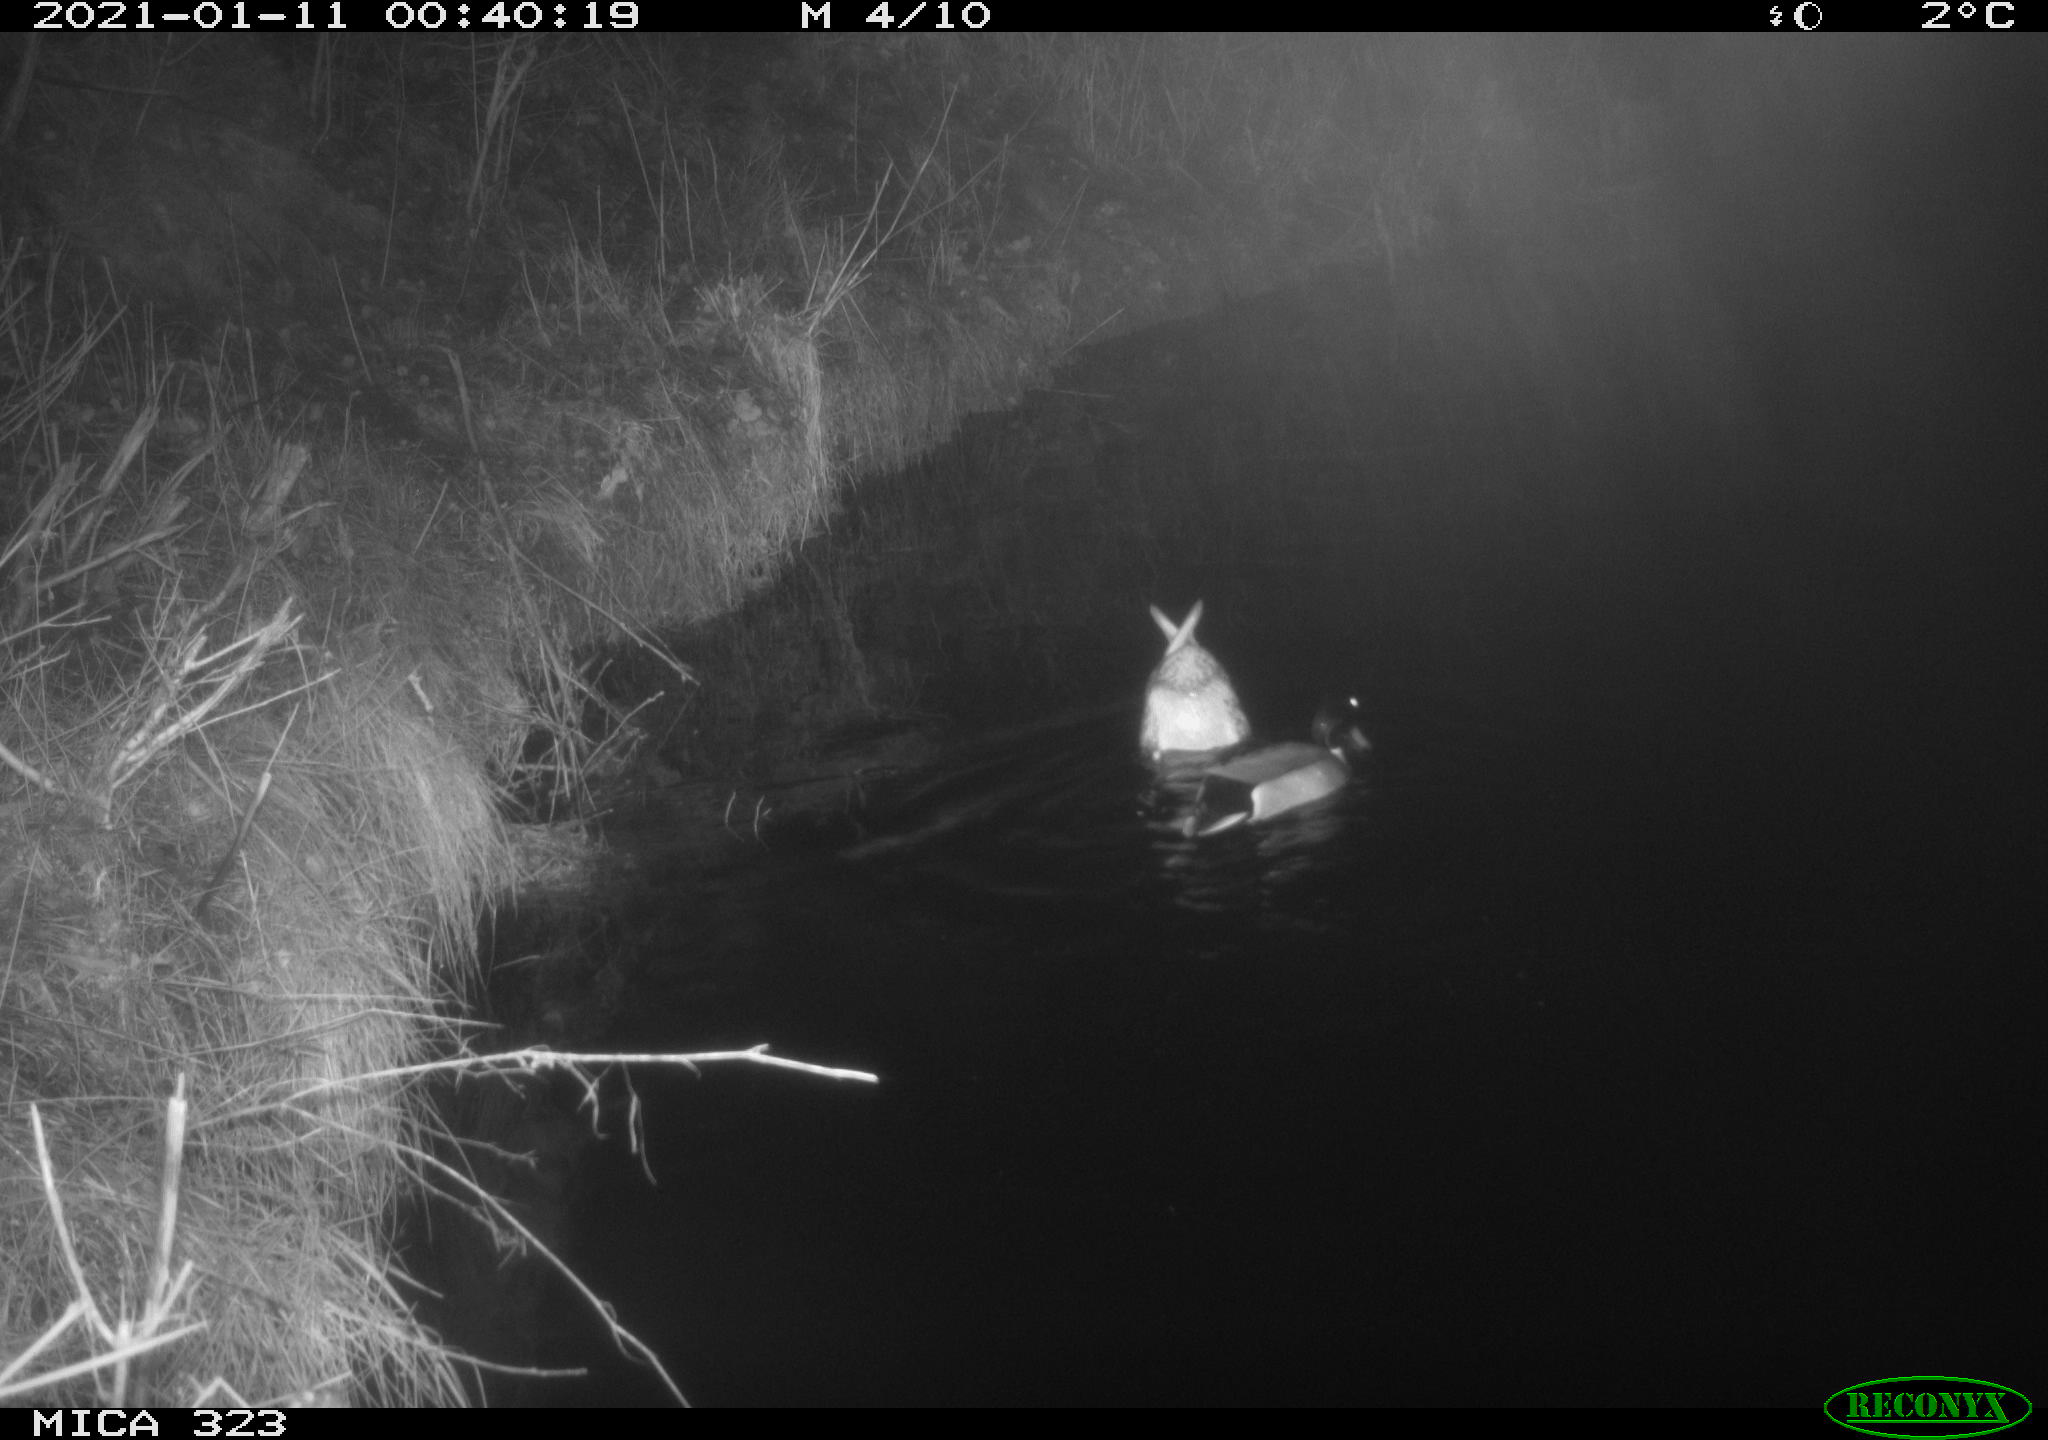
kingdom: Animalia
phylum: Chordata
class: Aves
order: Anseriformes
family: Anatidae
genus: Anas
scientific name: Anas platyrhynchos
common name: Mallard
